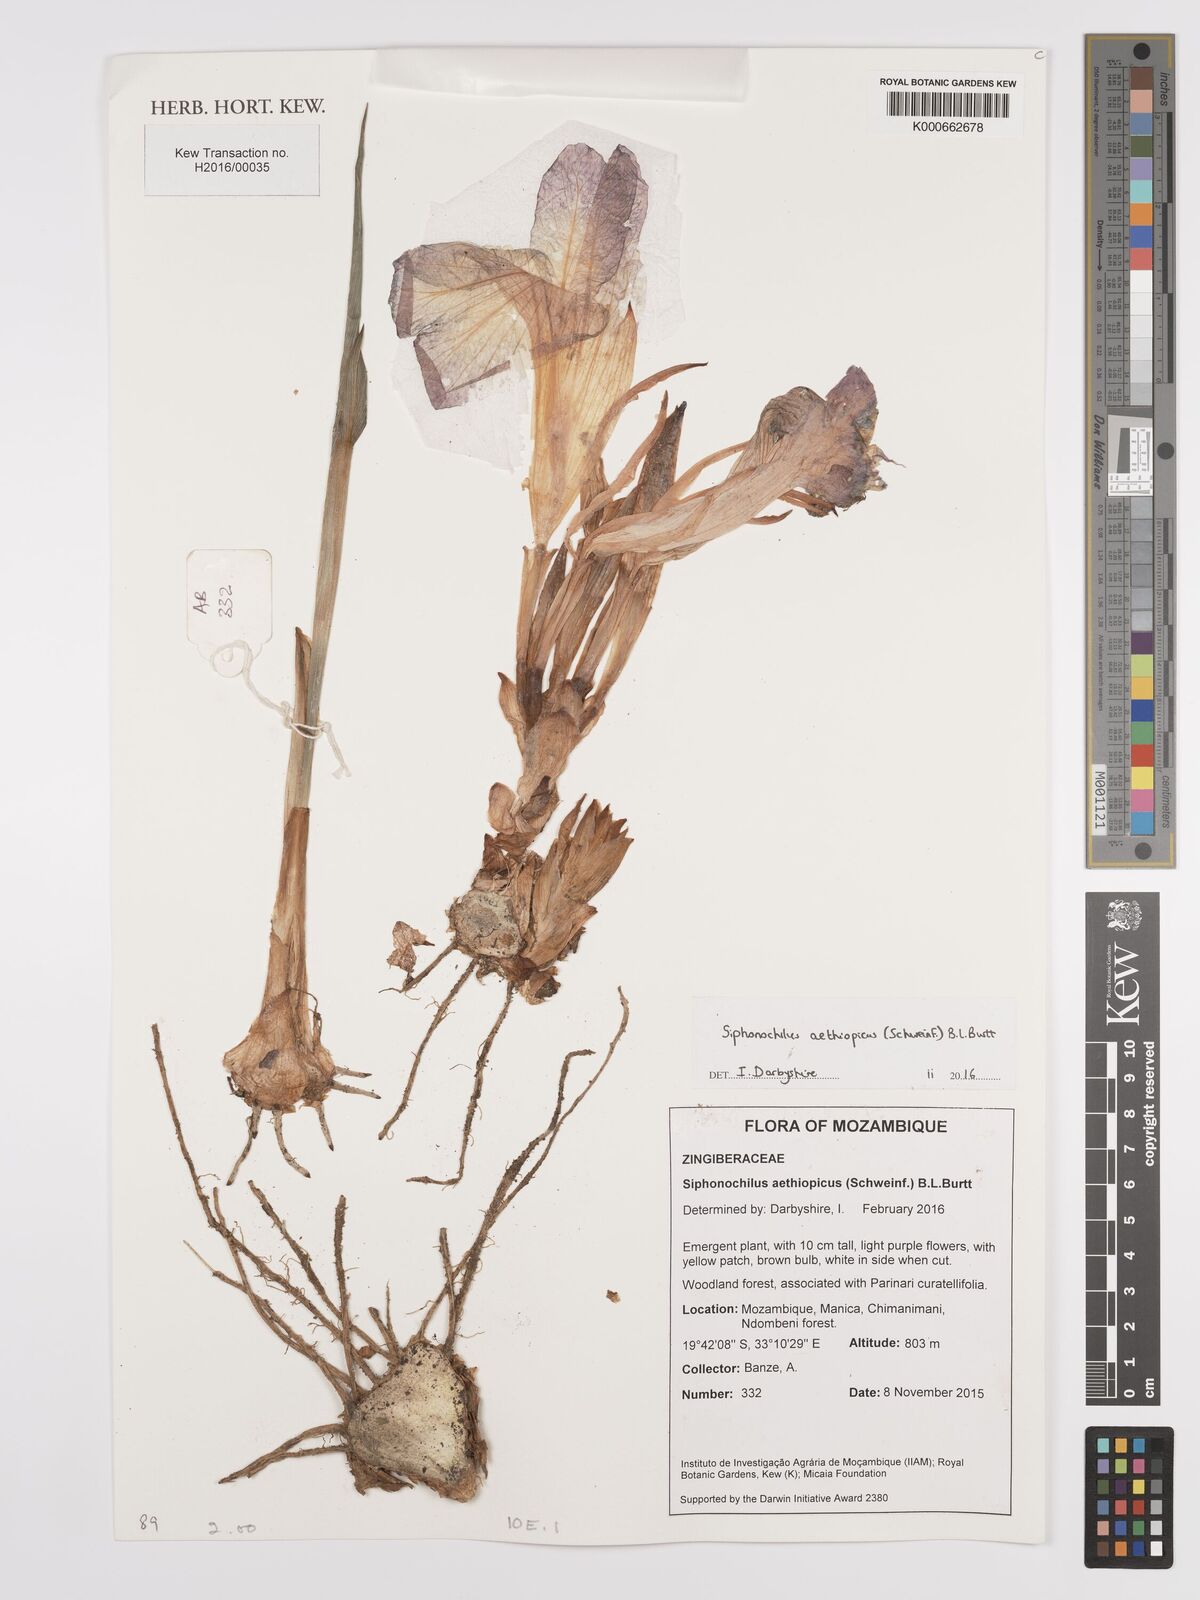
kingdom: Plantae
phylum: Tracheophyta
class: Liliopsida
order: Zingiberales
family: Zingiberaceae
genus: Siphonochilus
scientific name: Siphonochilus aethiopicus
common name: African-ginger
